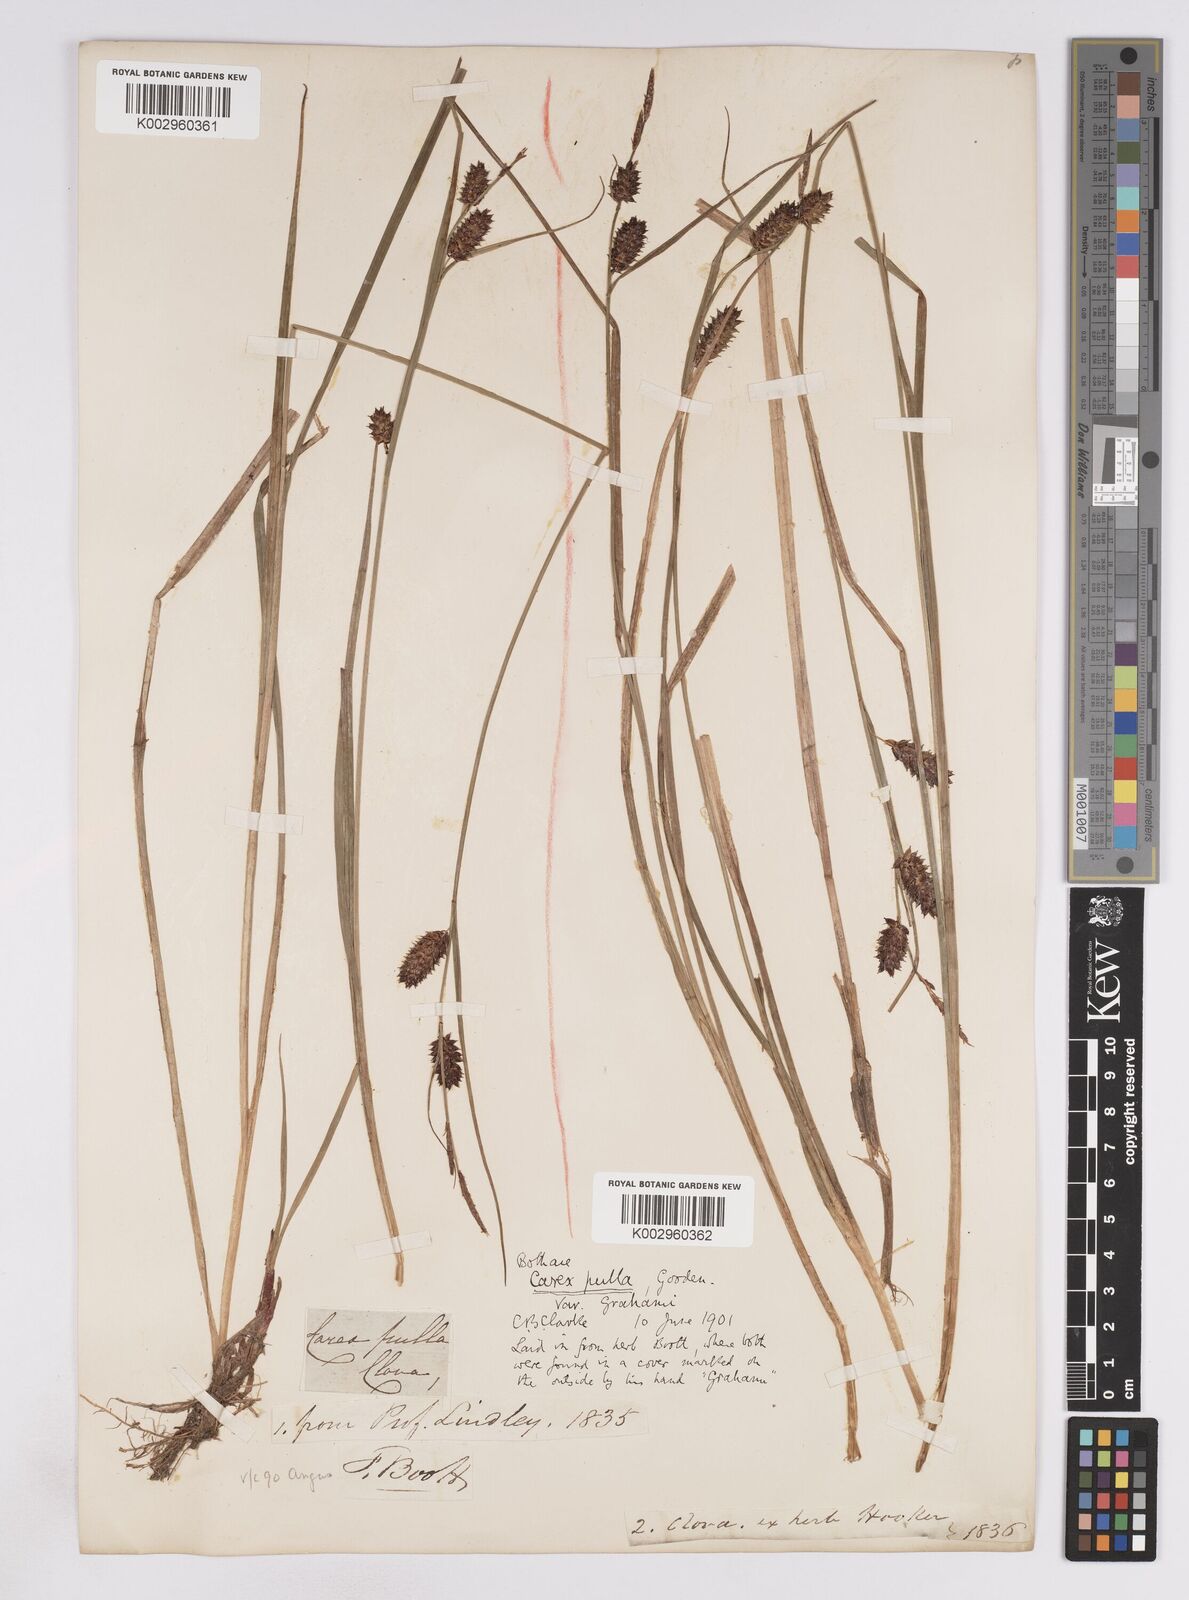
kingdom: Plantae
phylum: Tracheophyta
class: Liliopsida
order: Poales
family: Cyperaceae
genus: Carex
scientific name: Carex vesicaria
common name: Bladder-sedge
